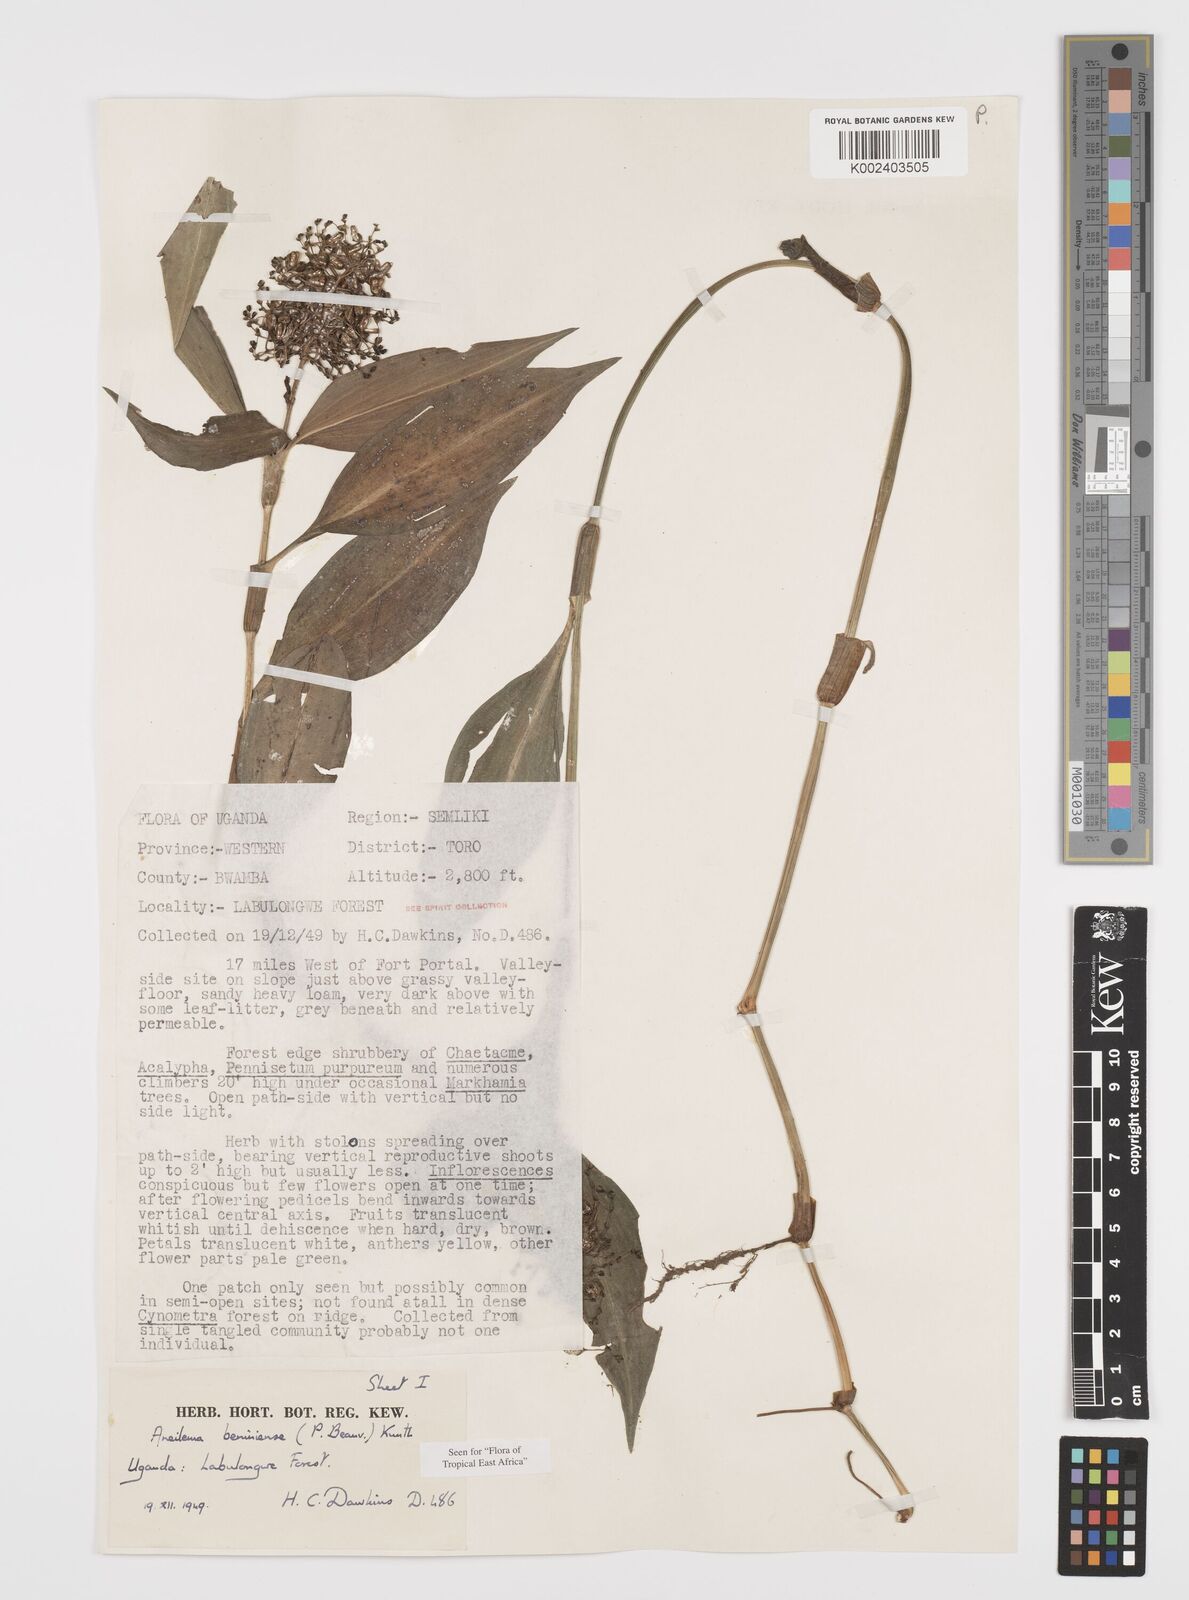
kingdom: Plantae
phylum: Tracheophyta
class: Liliopsida
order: Commelinales
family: Commelinaceae
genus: Aneilema
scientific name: Aneilema beniniense
